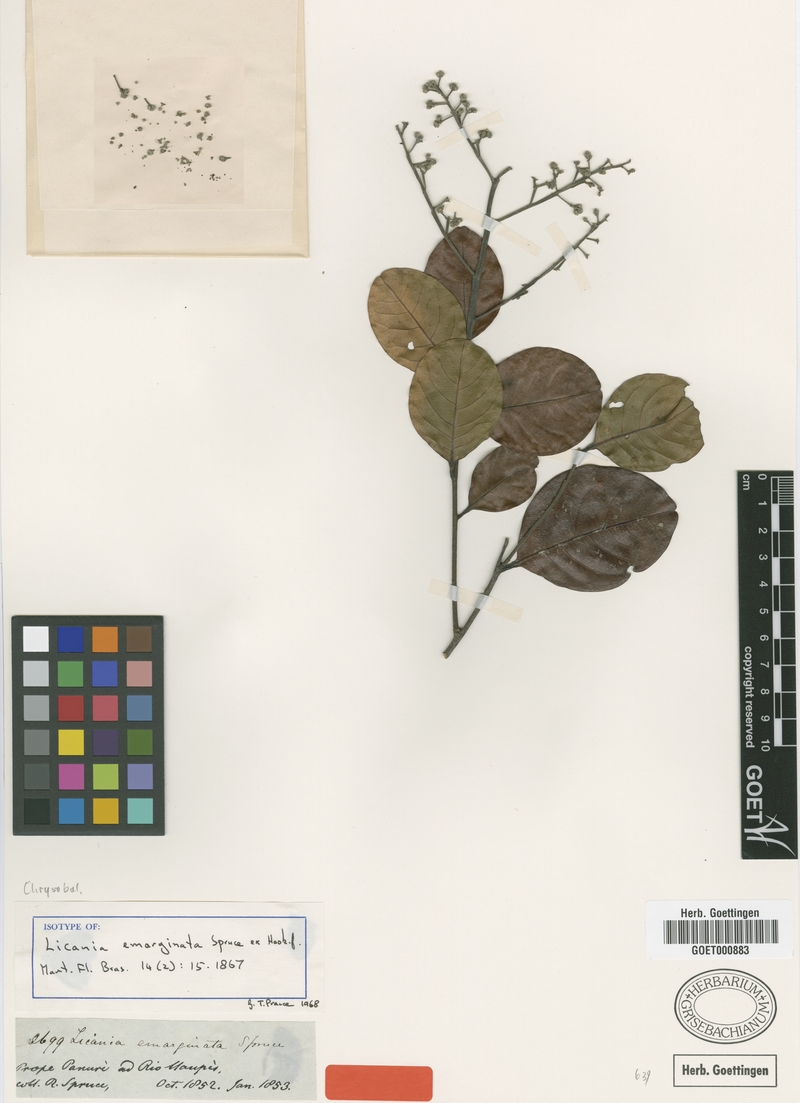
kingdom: Plantae
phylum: Tracheophyta
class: Magnoliopsida
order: Malpighiales
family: Chrysobalanaceae
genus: Leptobalanus
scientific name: Leptobalanus emarginatus
